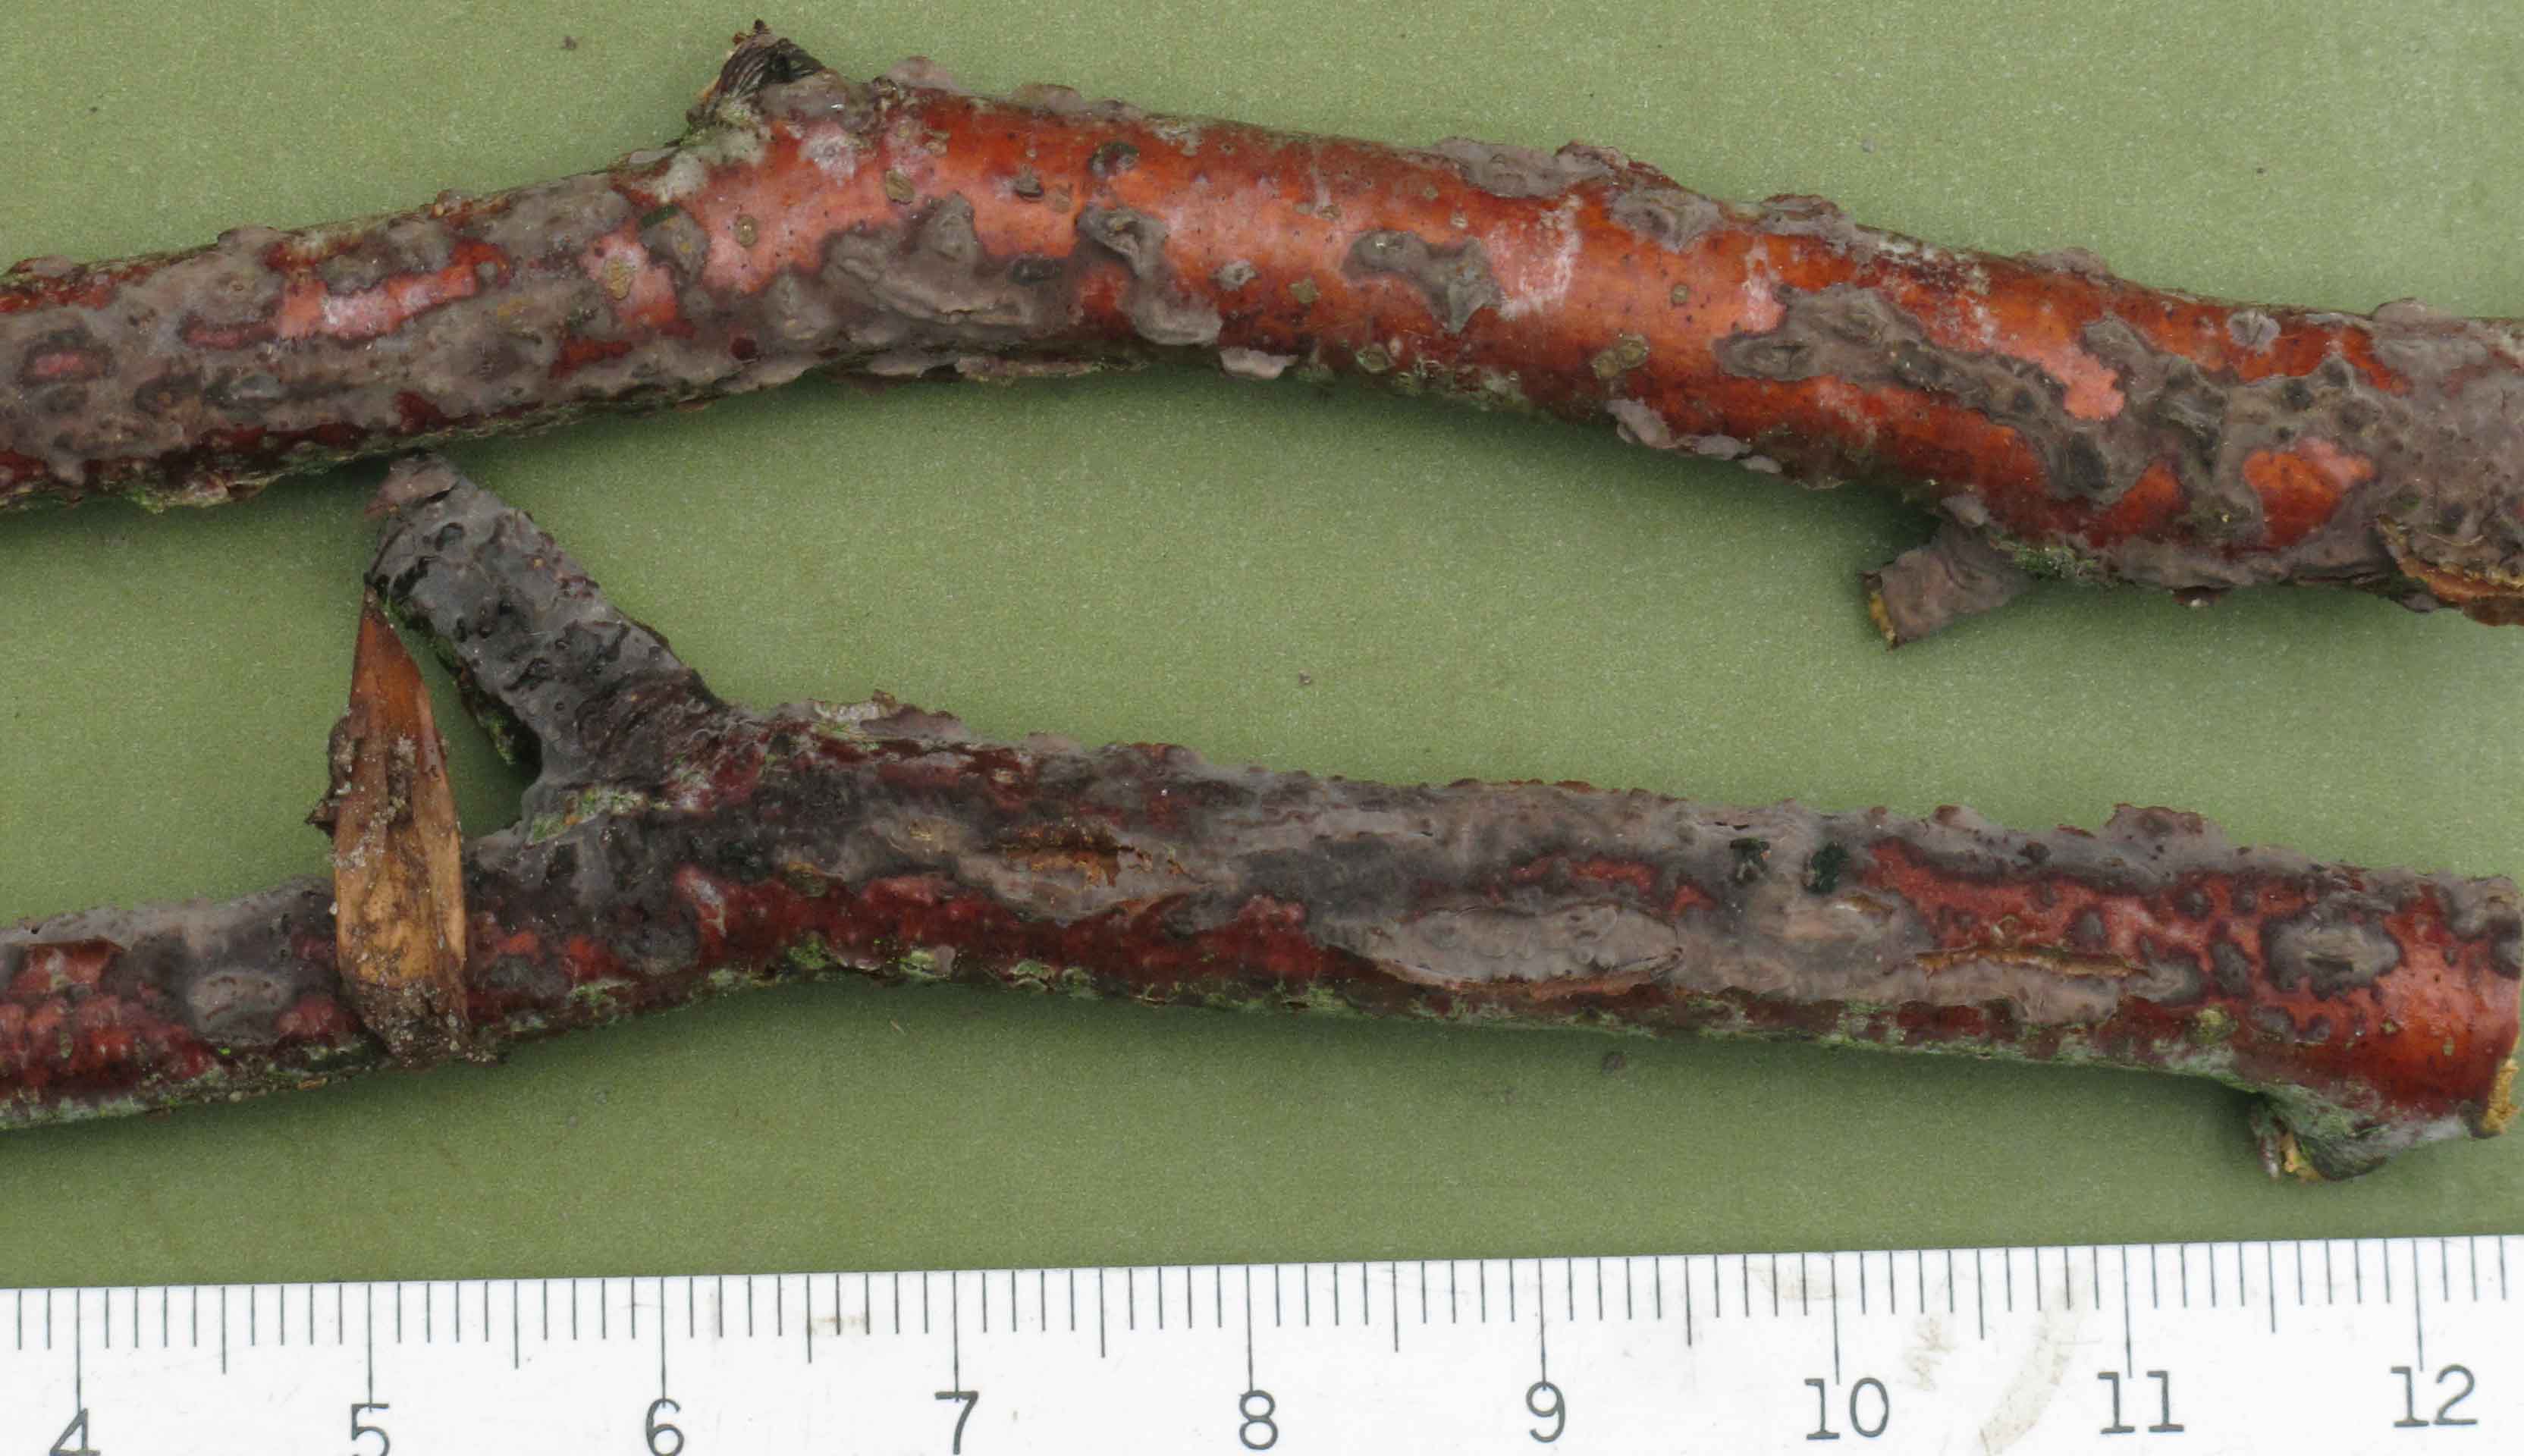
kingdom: Fungi
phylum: Basidiomycota
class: Agaricomycetes
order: Russulales
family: Peniophoraceae
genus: Peniophora
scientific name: Peniophora cinerea
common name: grå voksskind
